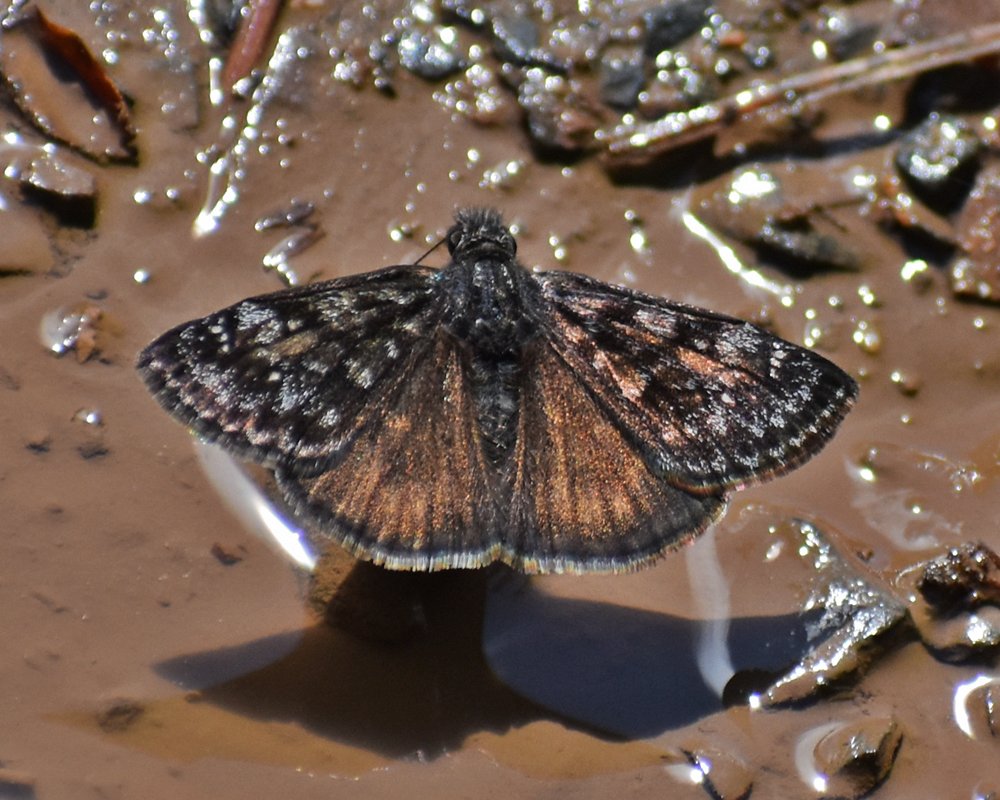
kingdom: Animalia
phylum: Arthropoda
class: Insecta
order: Lepidoptera
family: Hesperiidae
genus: Erynnis
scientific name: Erynnis pacuvius
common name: Pacuvius Duskywing
